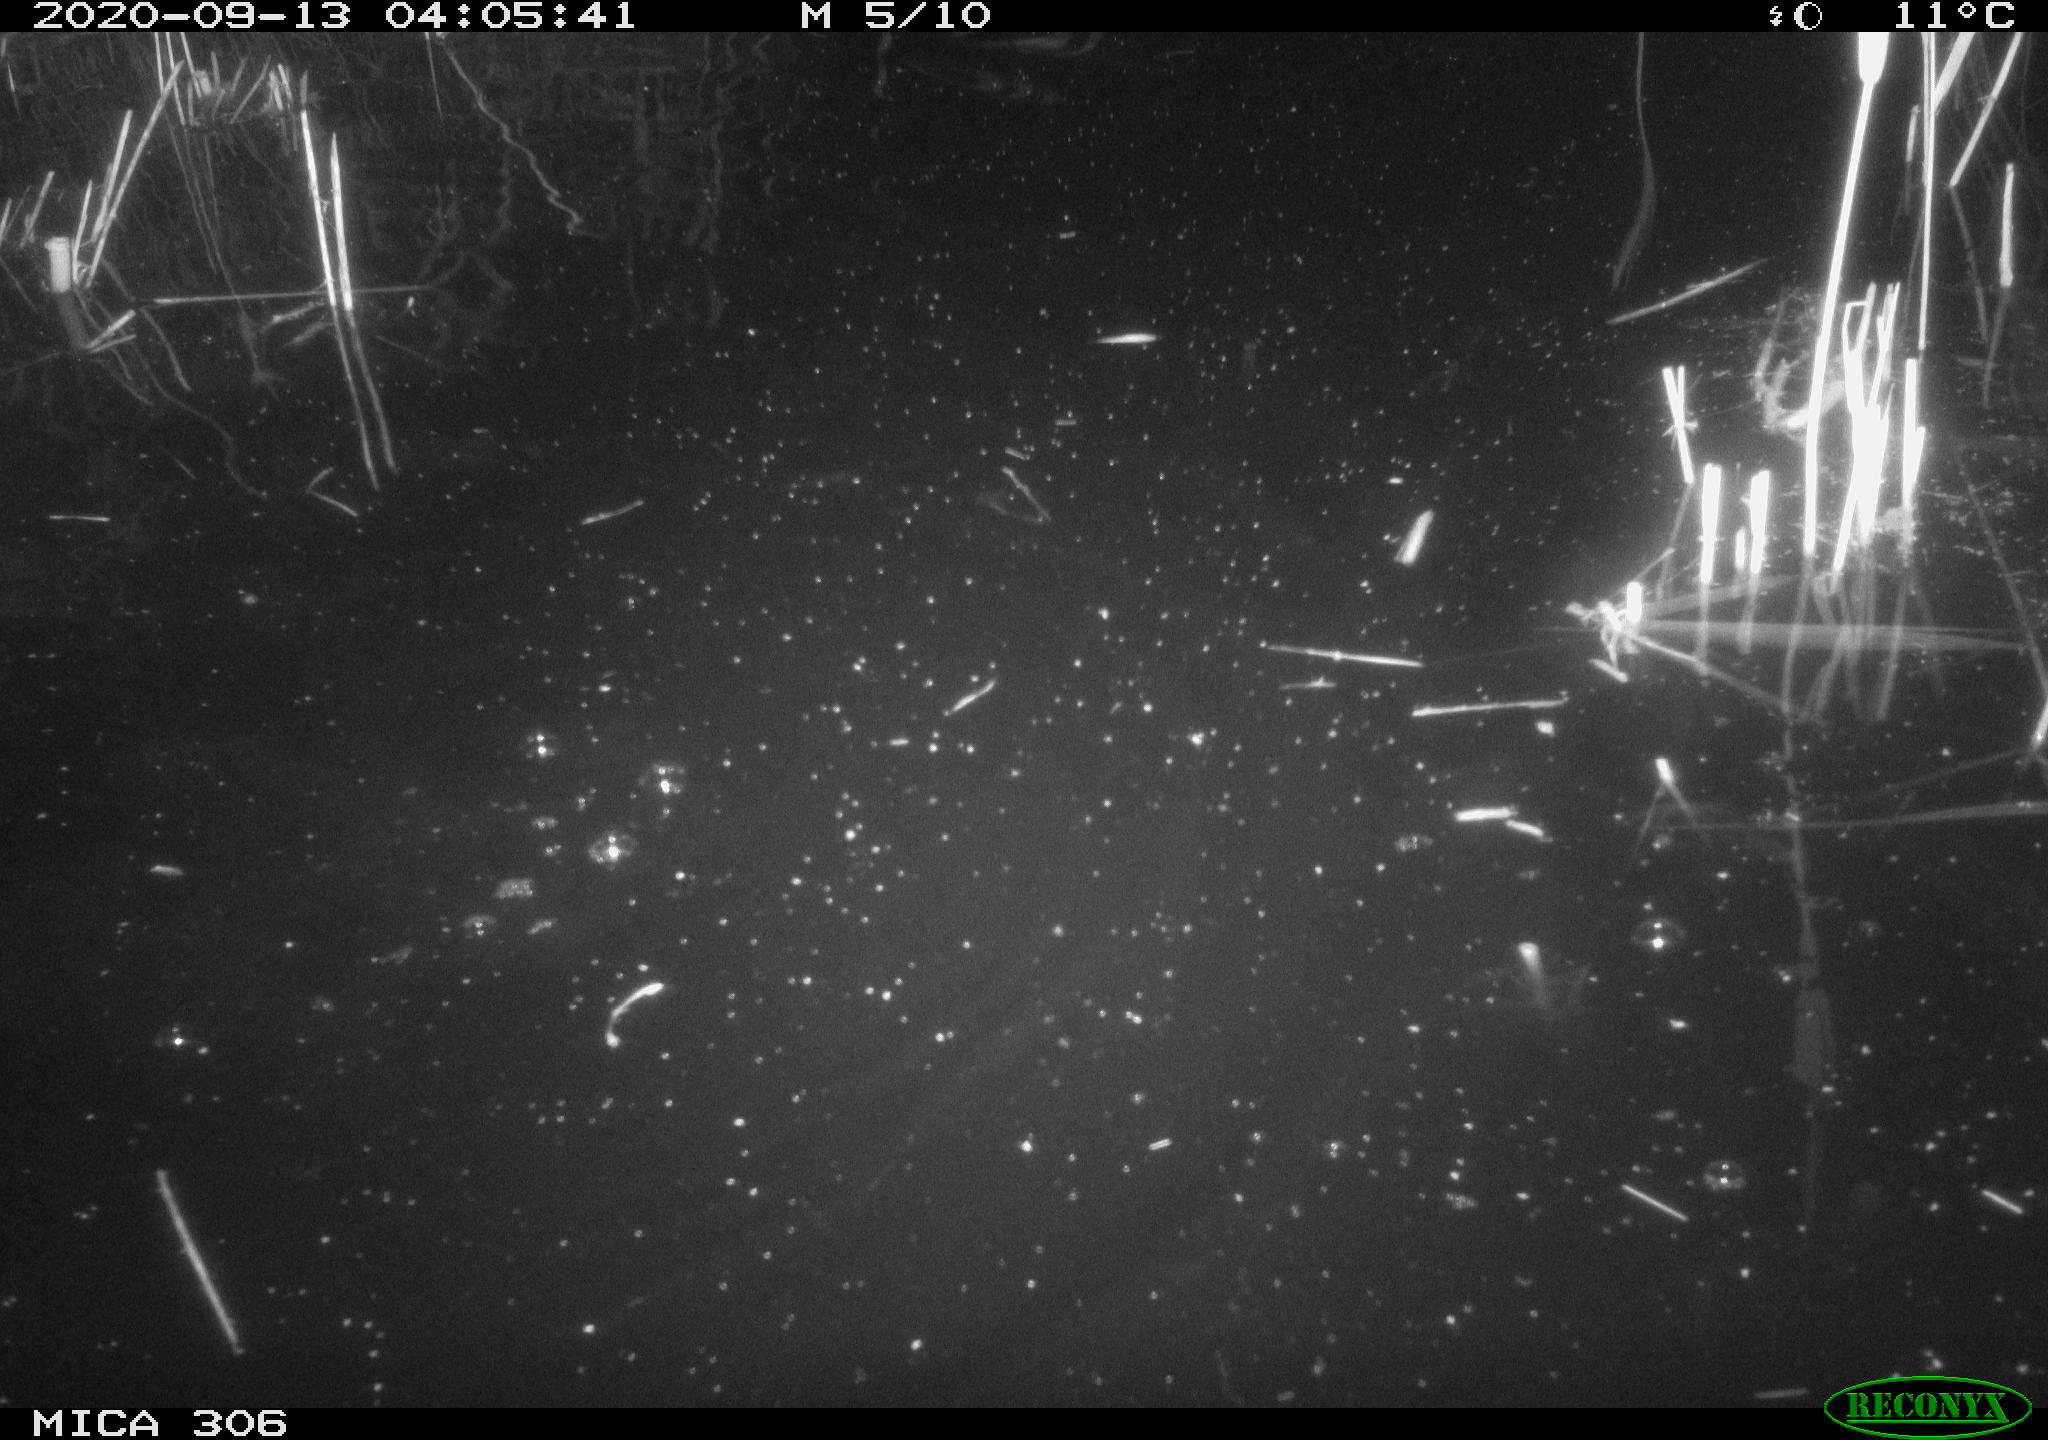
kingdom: Animalia
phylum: Chordata
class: Mammalia
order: Rodentia
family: Muridae
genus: Rattus
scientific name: Rattus norvegicus
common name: Brown rat
